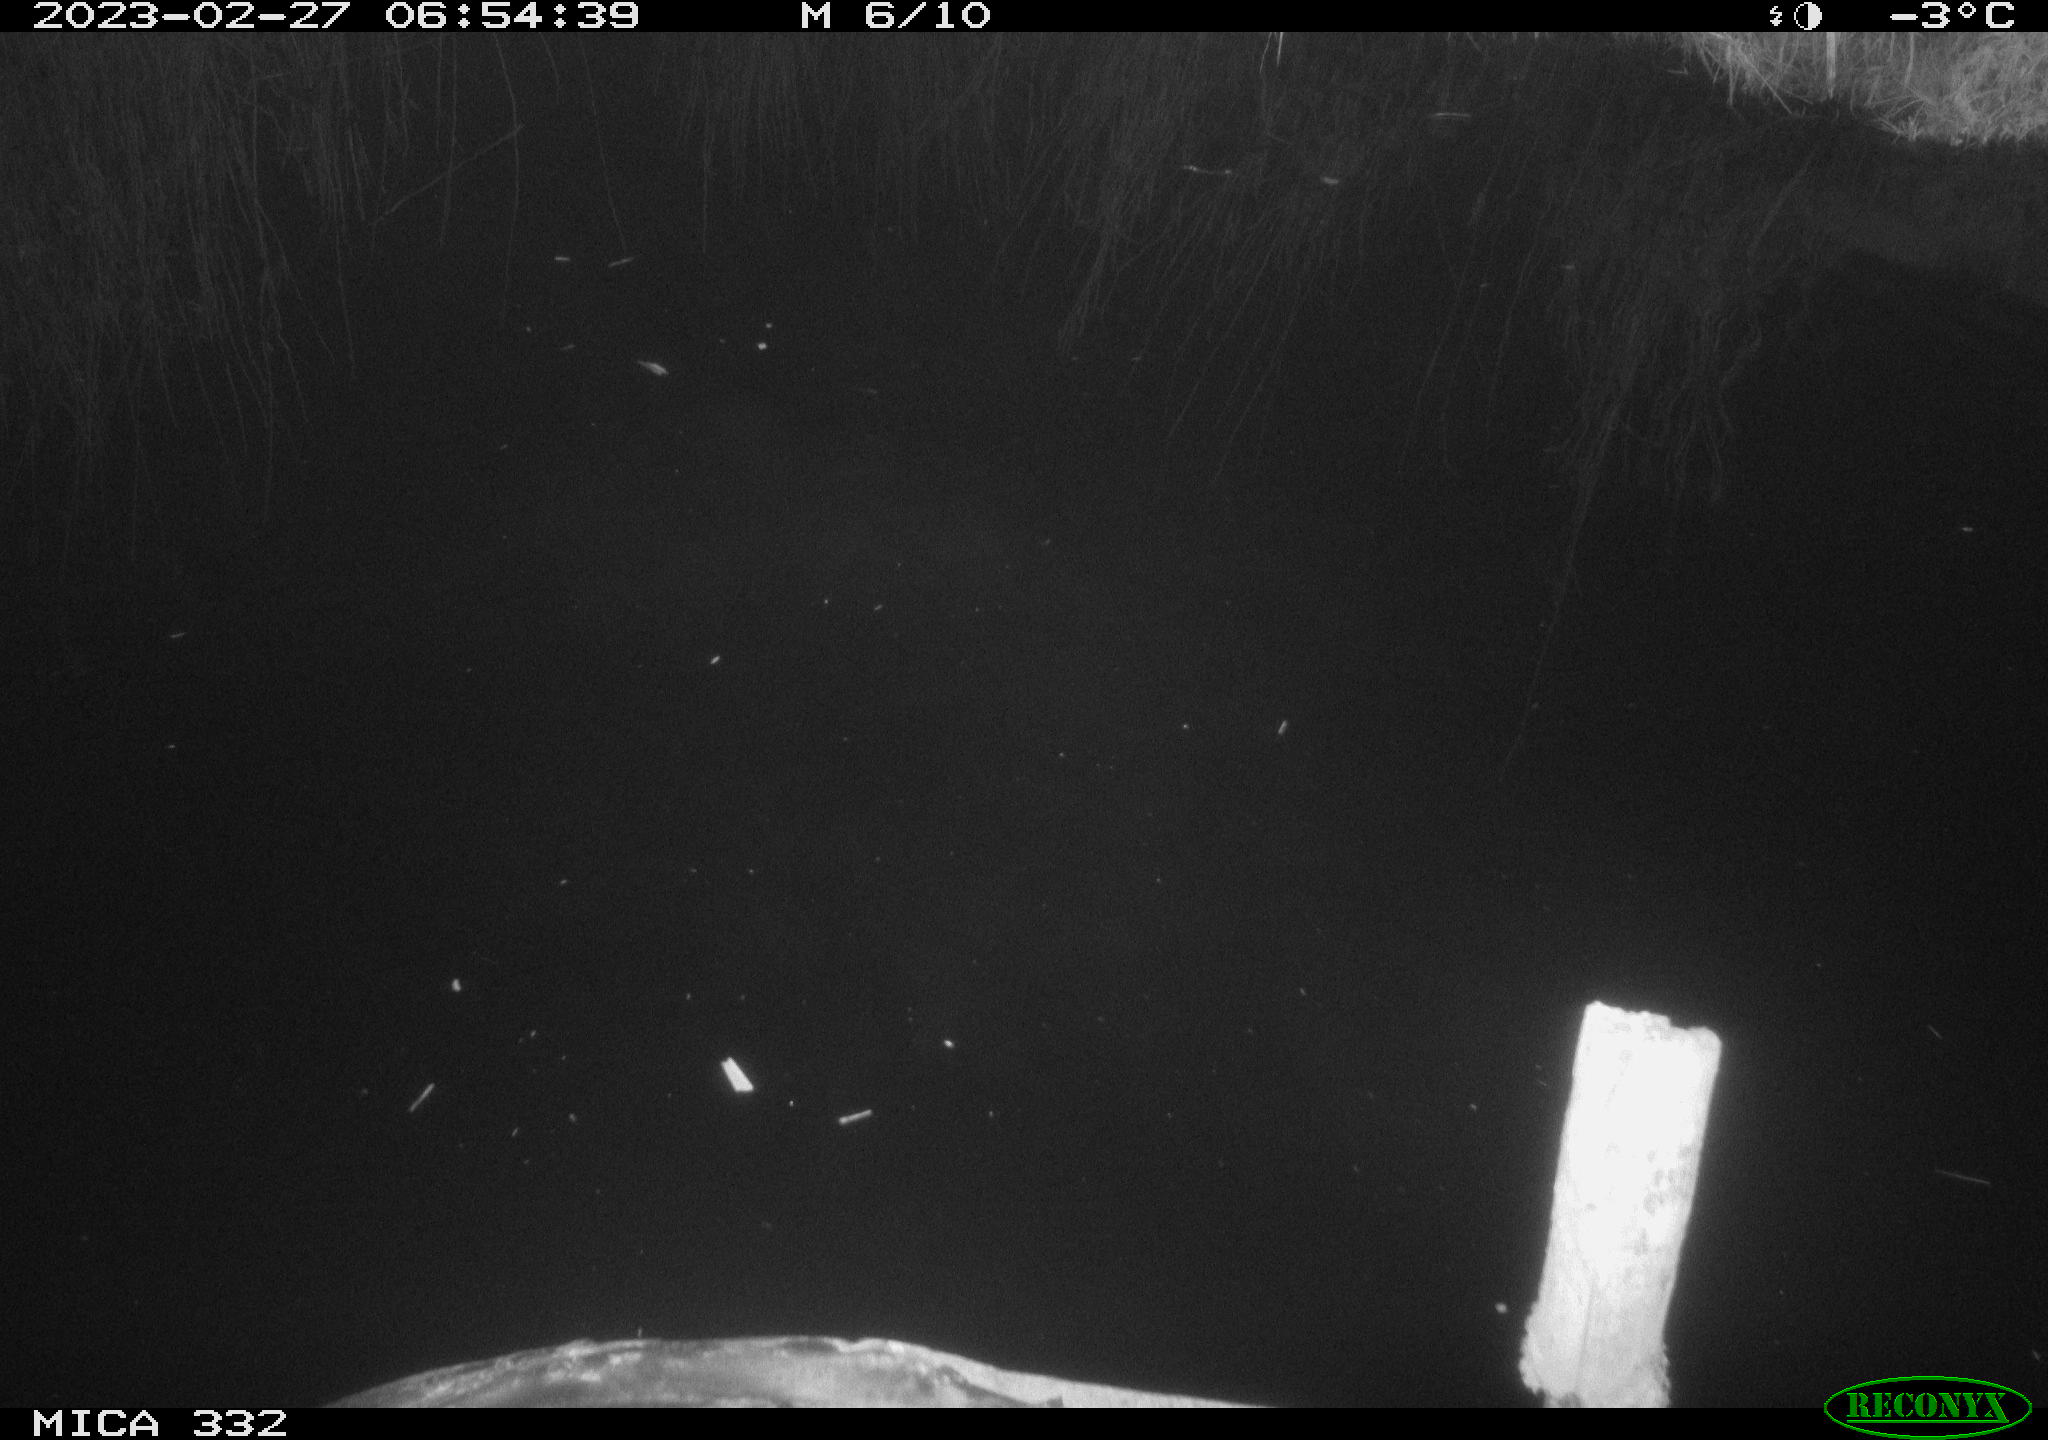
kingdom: Animalia
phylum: Chordata
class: Aves
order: Anseriformes
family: Anatidae
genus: Anas
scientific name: Anas
